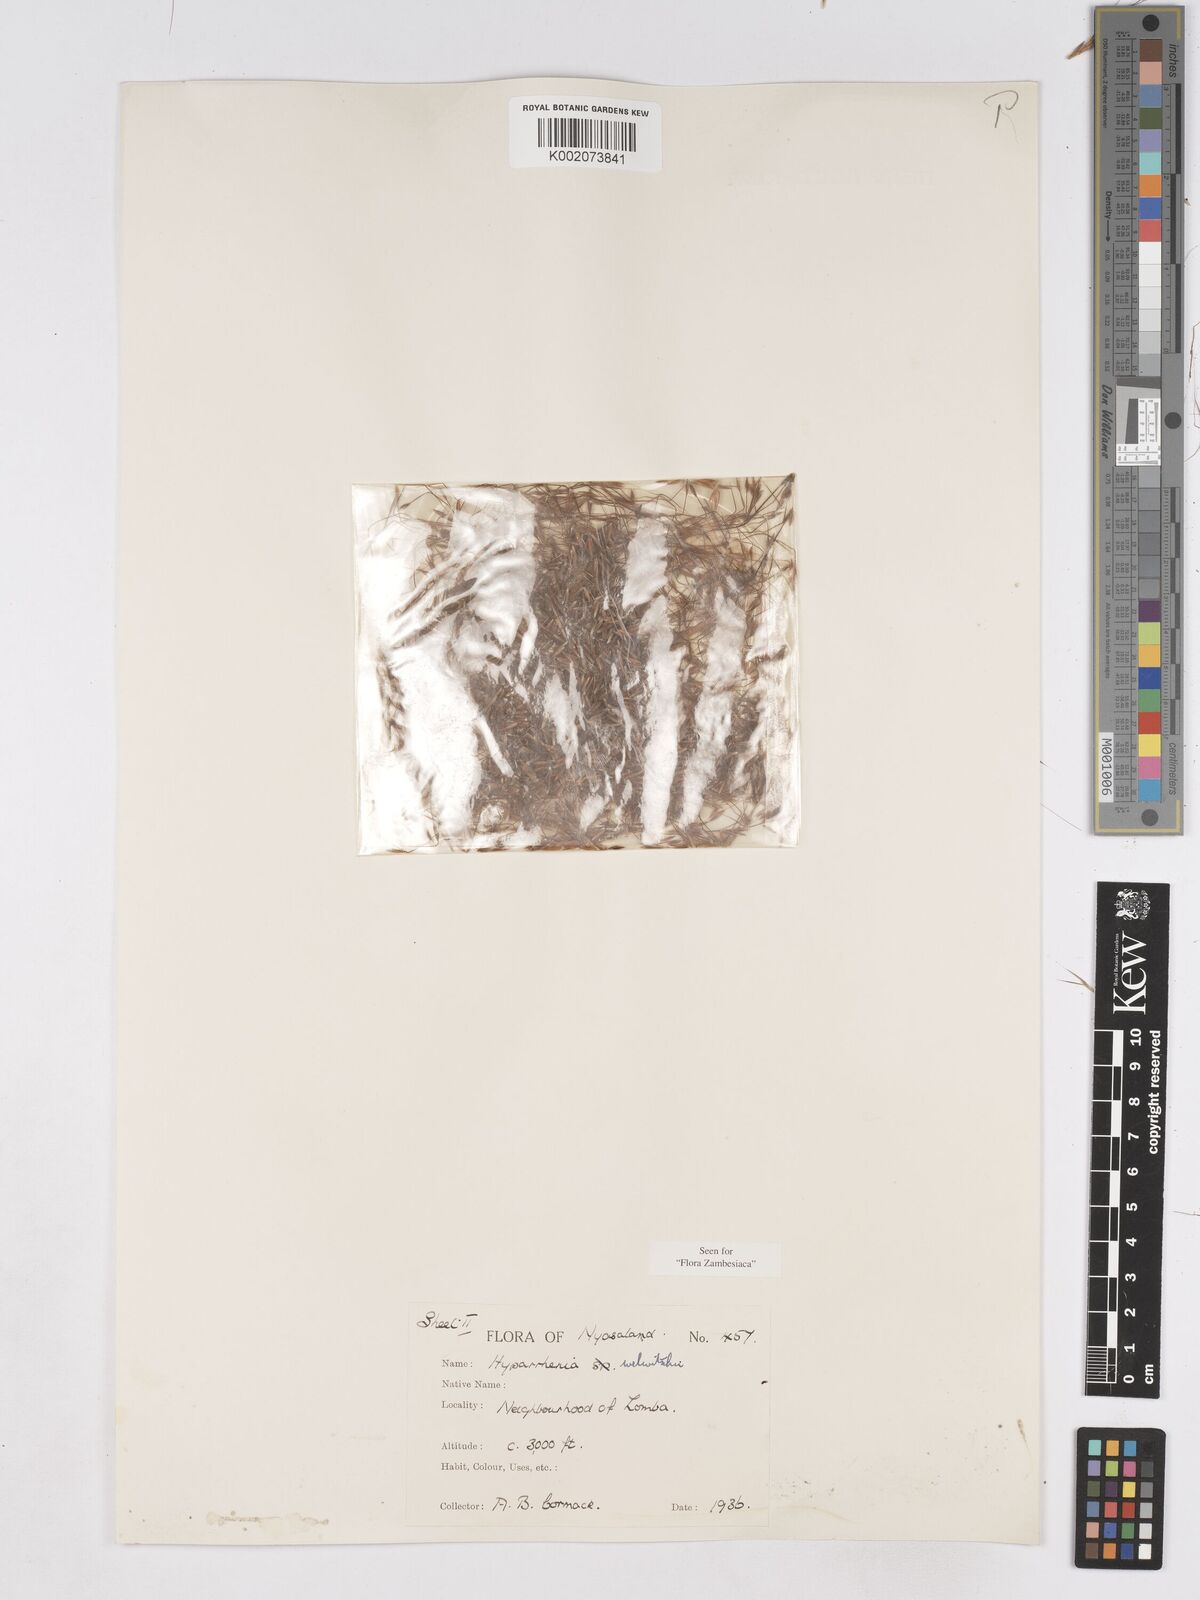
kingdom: Plantae
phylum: Tracheophyta
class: Liliopsida
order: Poales
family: Poaceae
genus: Hyparrhenia
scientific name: Hyparrhenia welwitschii
